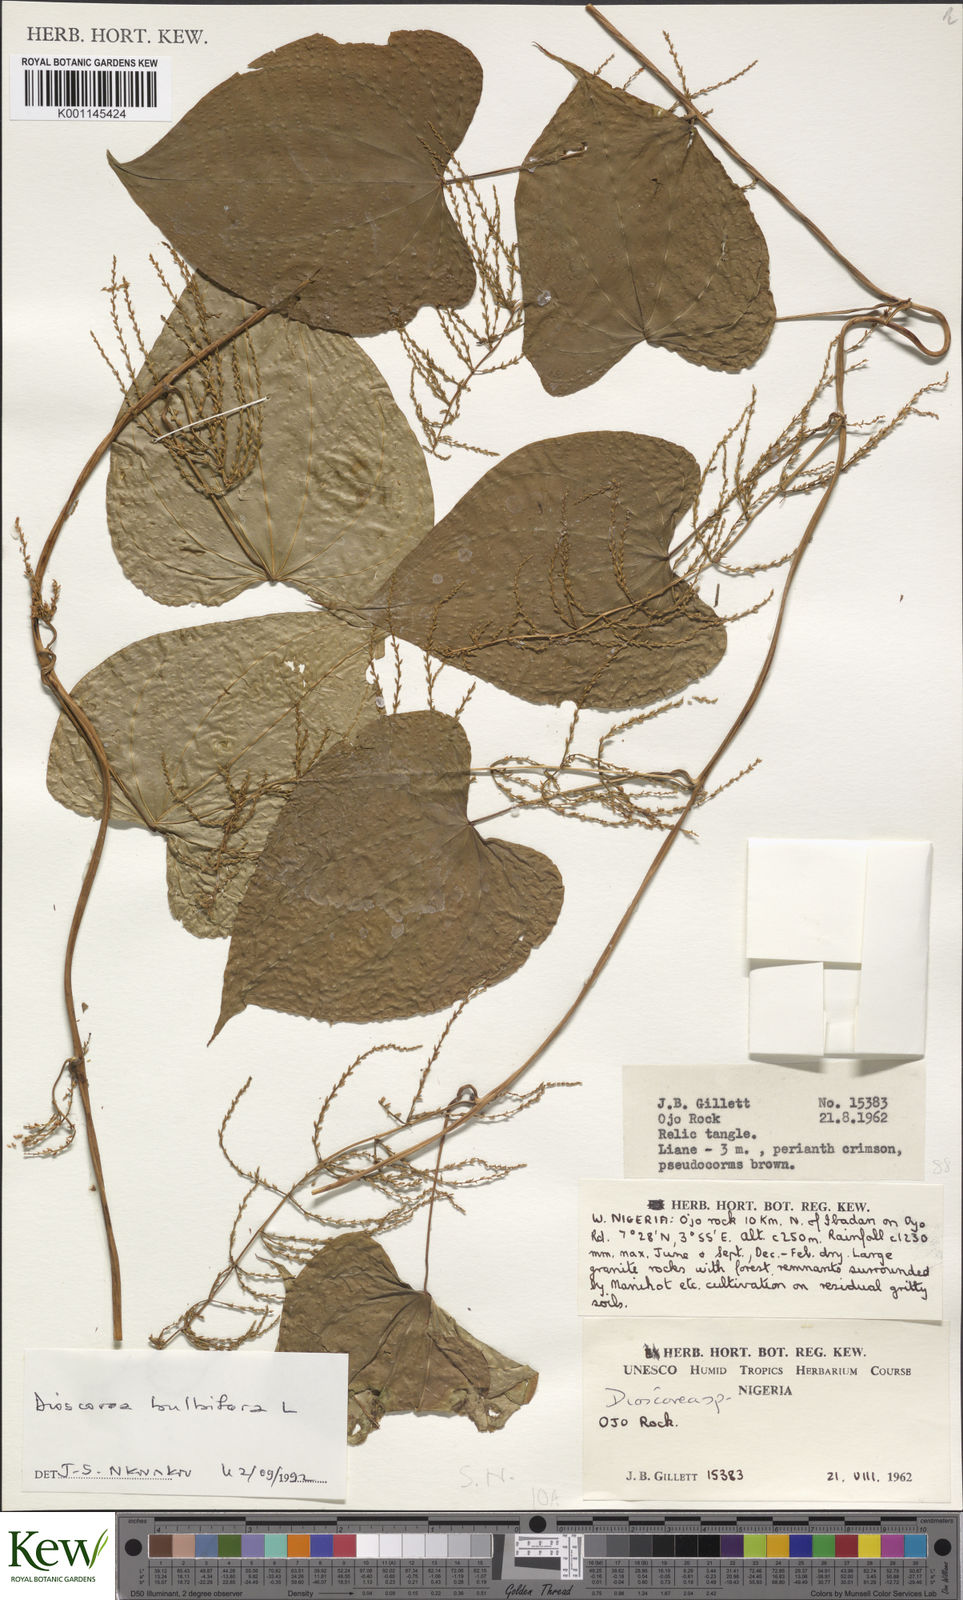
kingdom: Plantae
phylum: Tracheophyta
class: Liliopsida
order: Dioscoreales
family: Dioscoreaceae
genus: Dioscorea
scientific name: Dioscorea bulbifera
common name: Air yam
